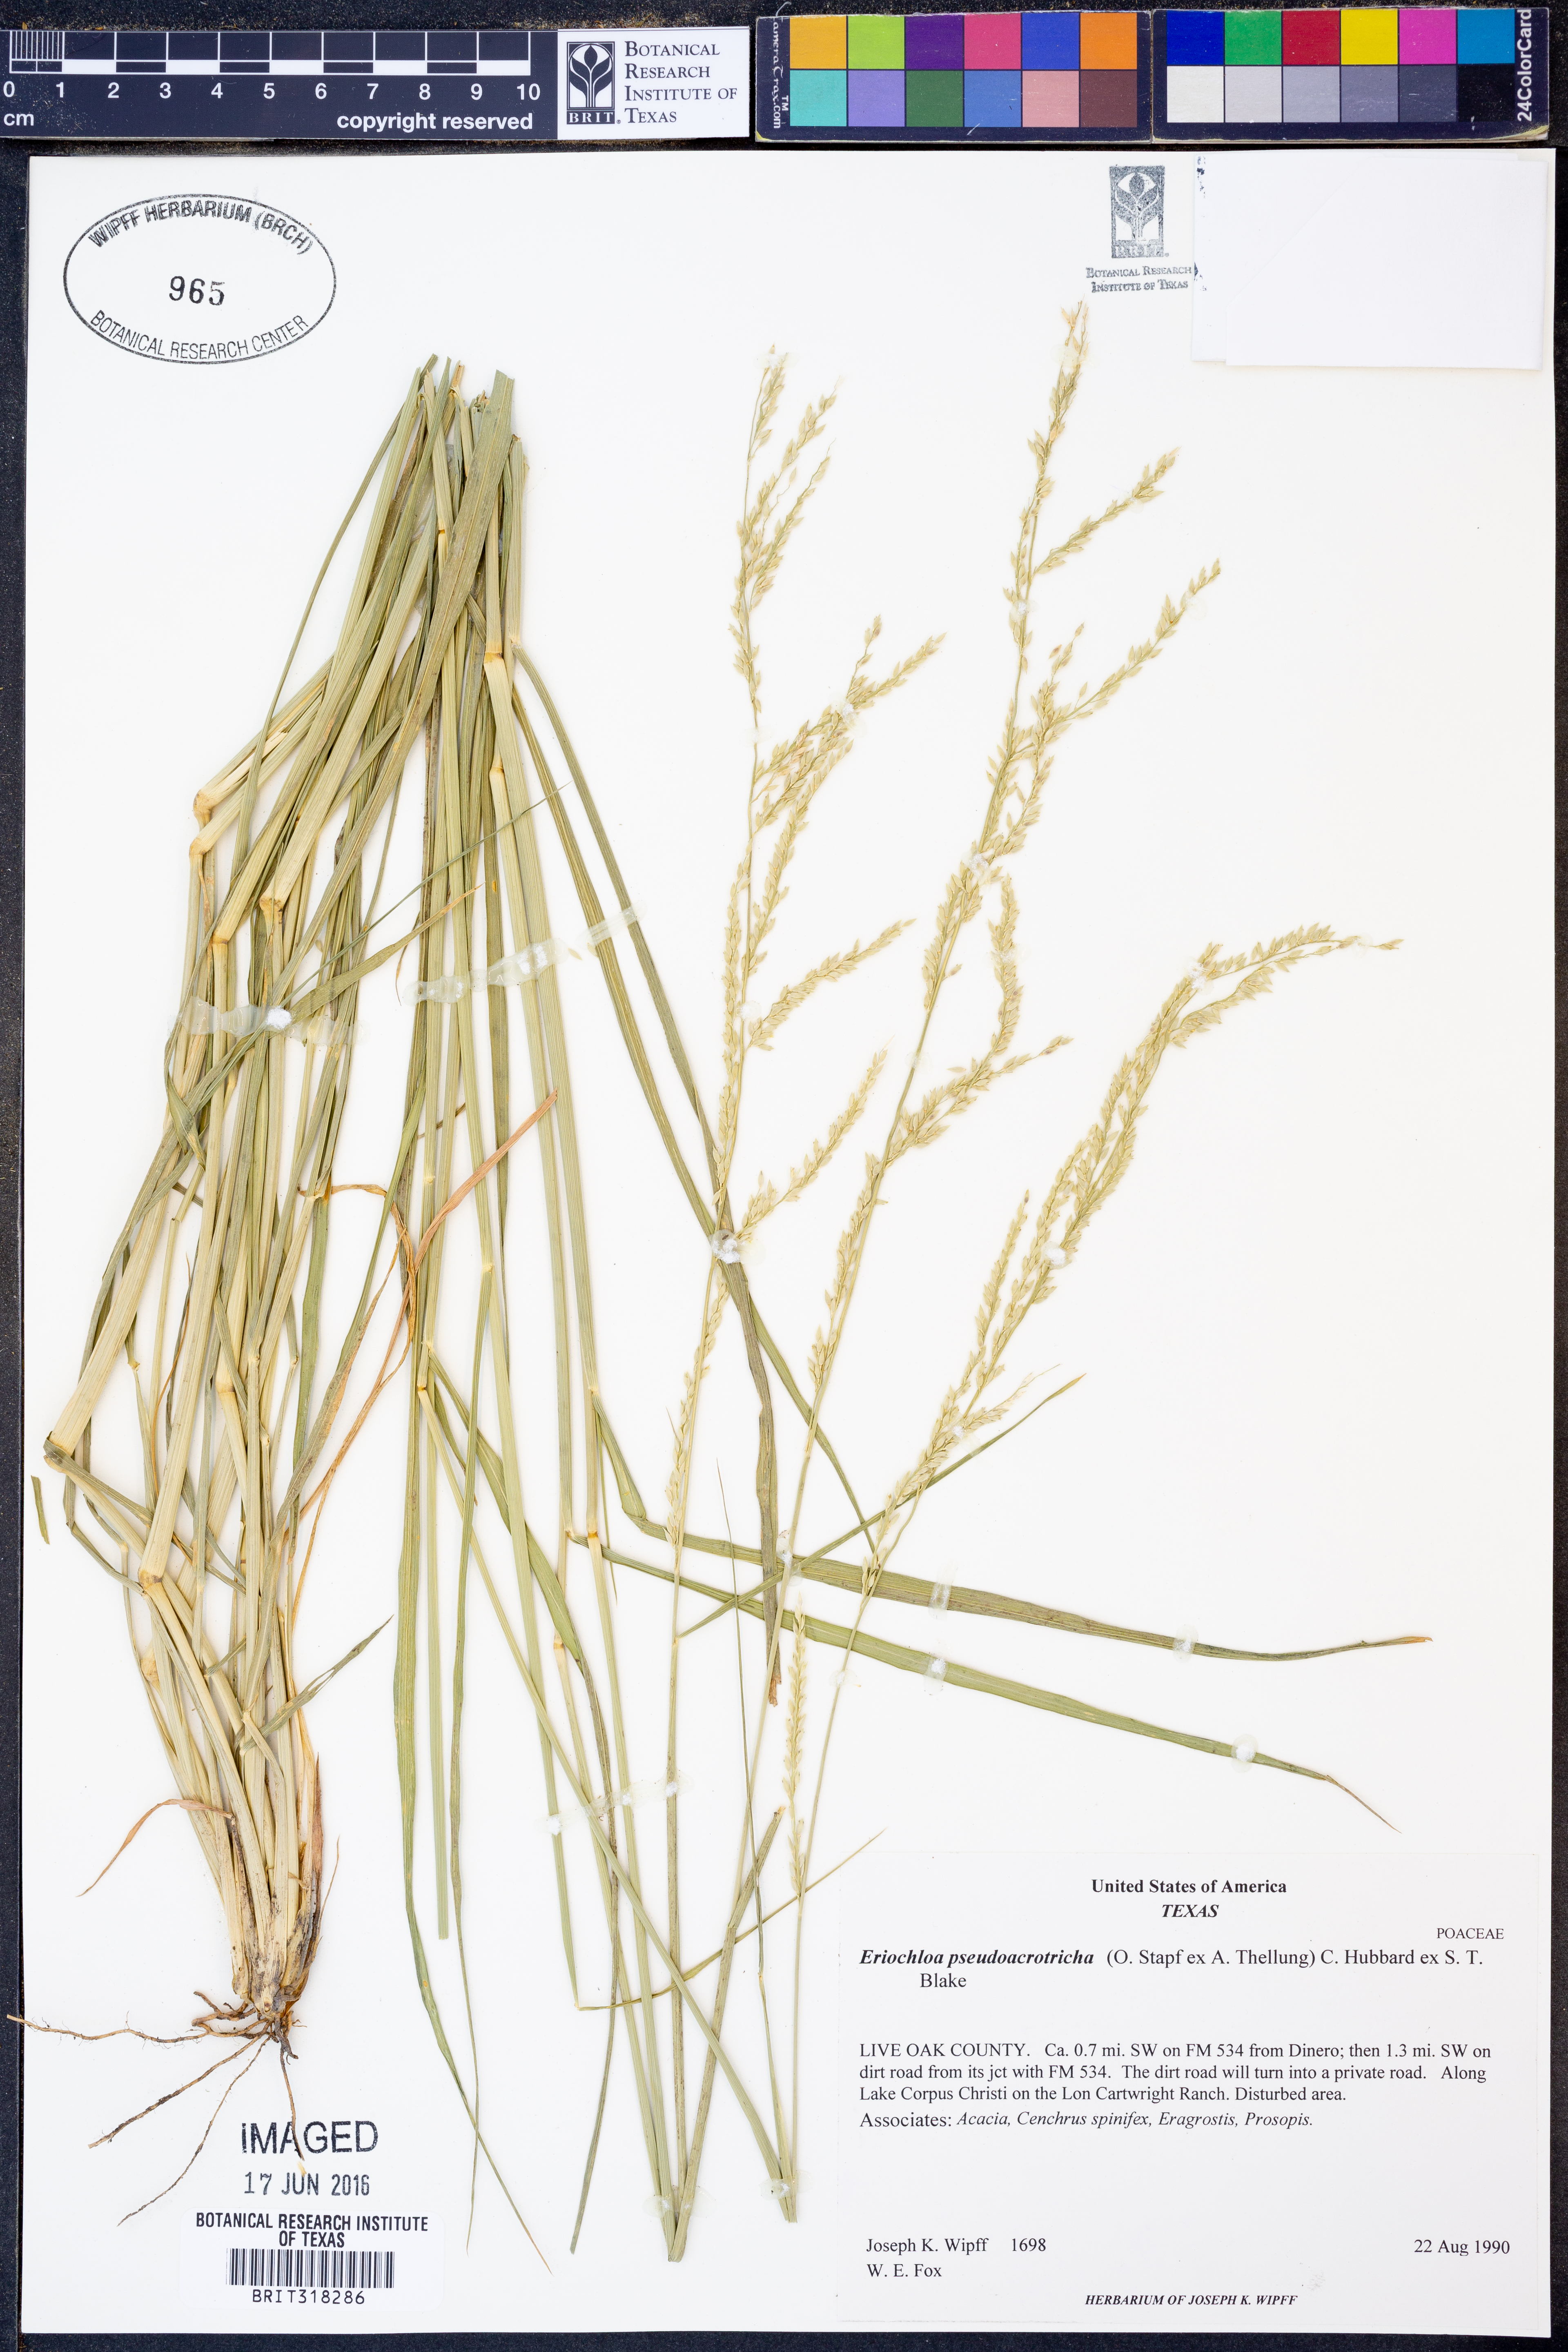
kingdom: Plantae
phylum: Tracheophyta
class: Liliopsida
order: Poales
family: Poaceae
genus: Eriochloa
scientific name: Eriochloa pseudoacrotricha
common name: Perennial cup-grass
